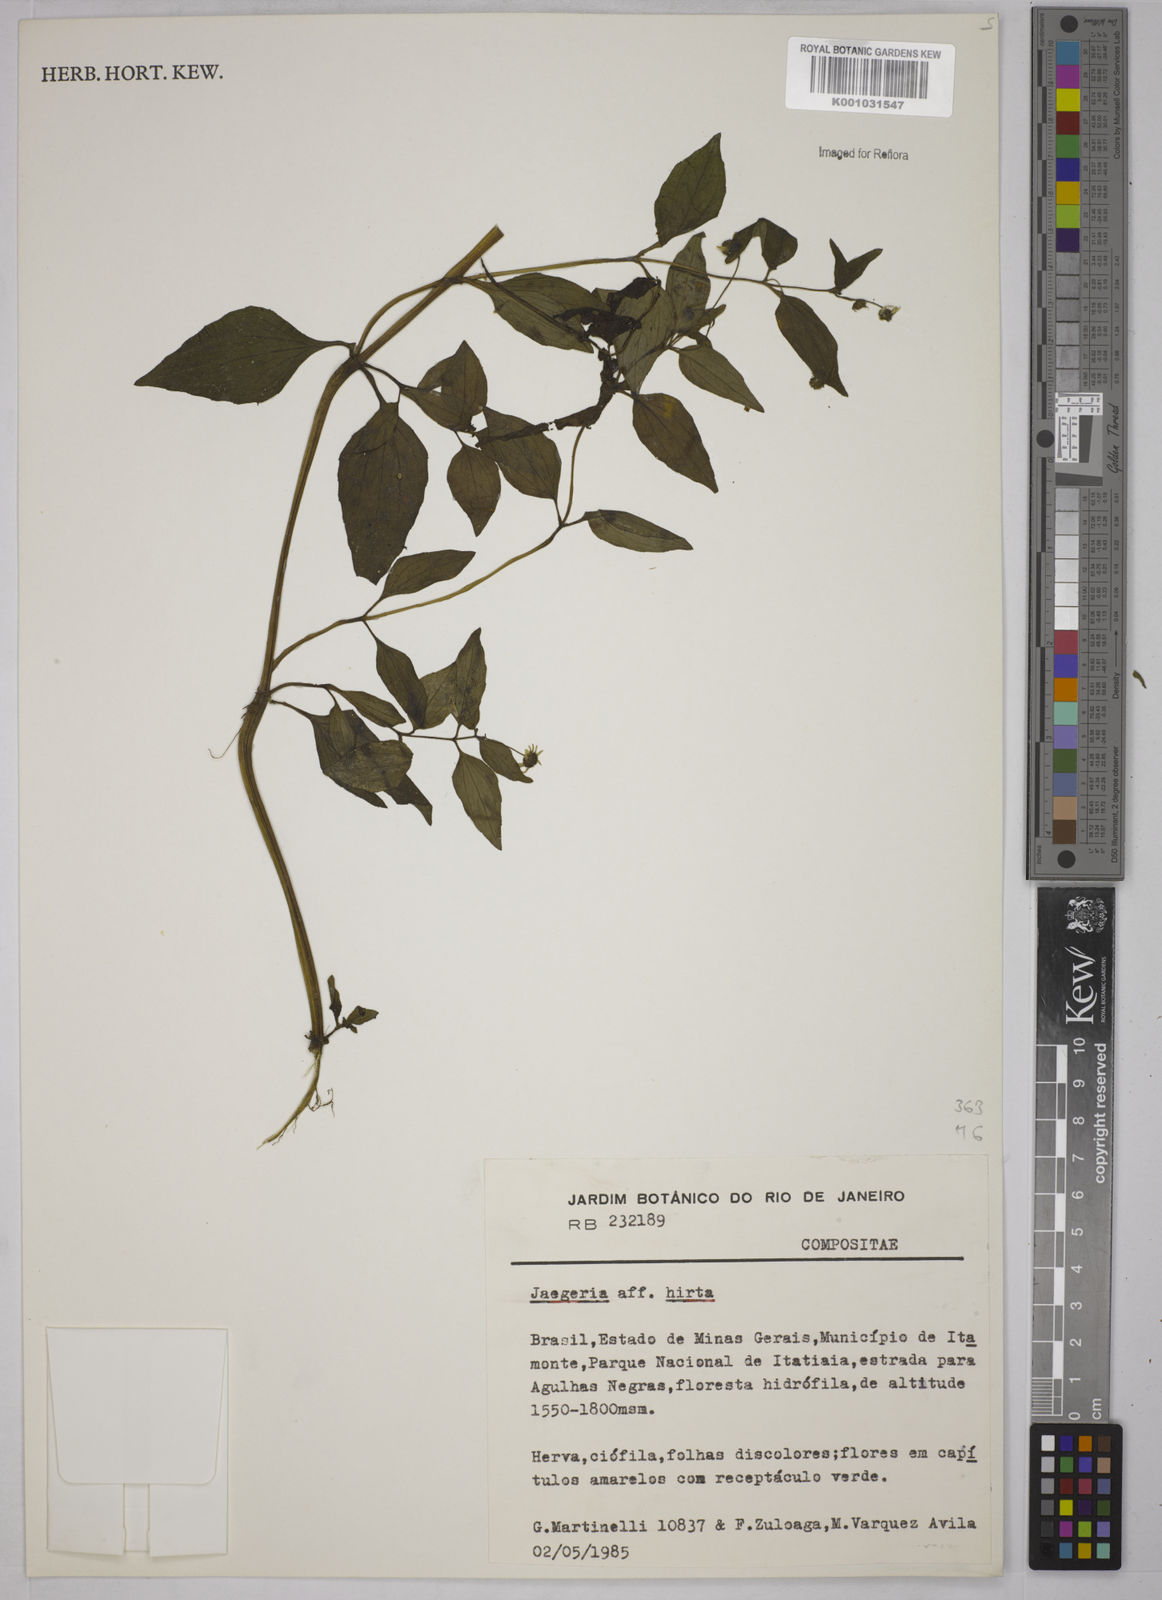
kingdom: Plantae
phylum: Tracheophyta
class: Magnoliopsida
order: Asterales
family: Asteraceae
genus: Jaegeria
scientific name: Jaegeria hirta
